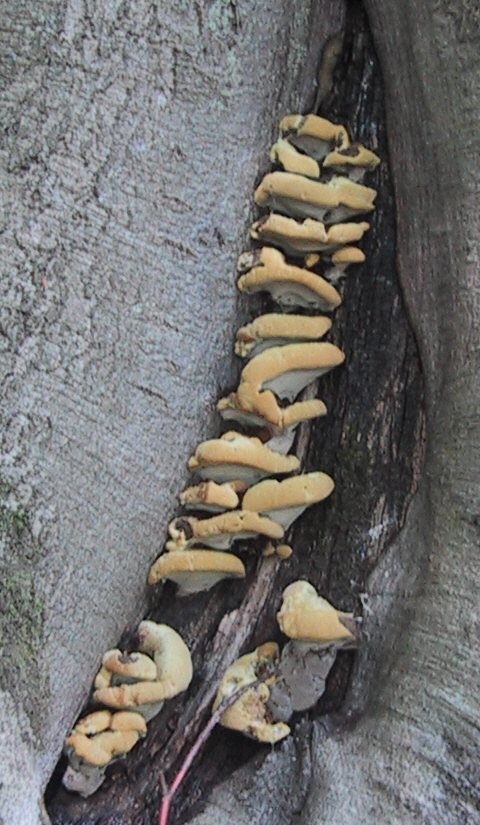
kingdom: Fungi
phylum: Basidiomycota
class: Agaricomycetes
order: Hymenochaetales
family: Hymenochaetaceae
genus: Inonotus
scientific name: Inonotus cuticularis
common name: kroghåret spejlporesvamp
